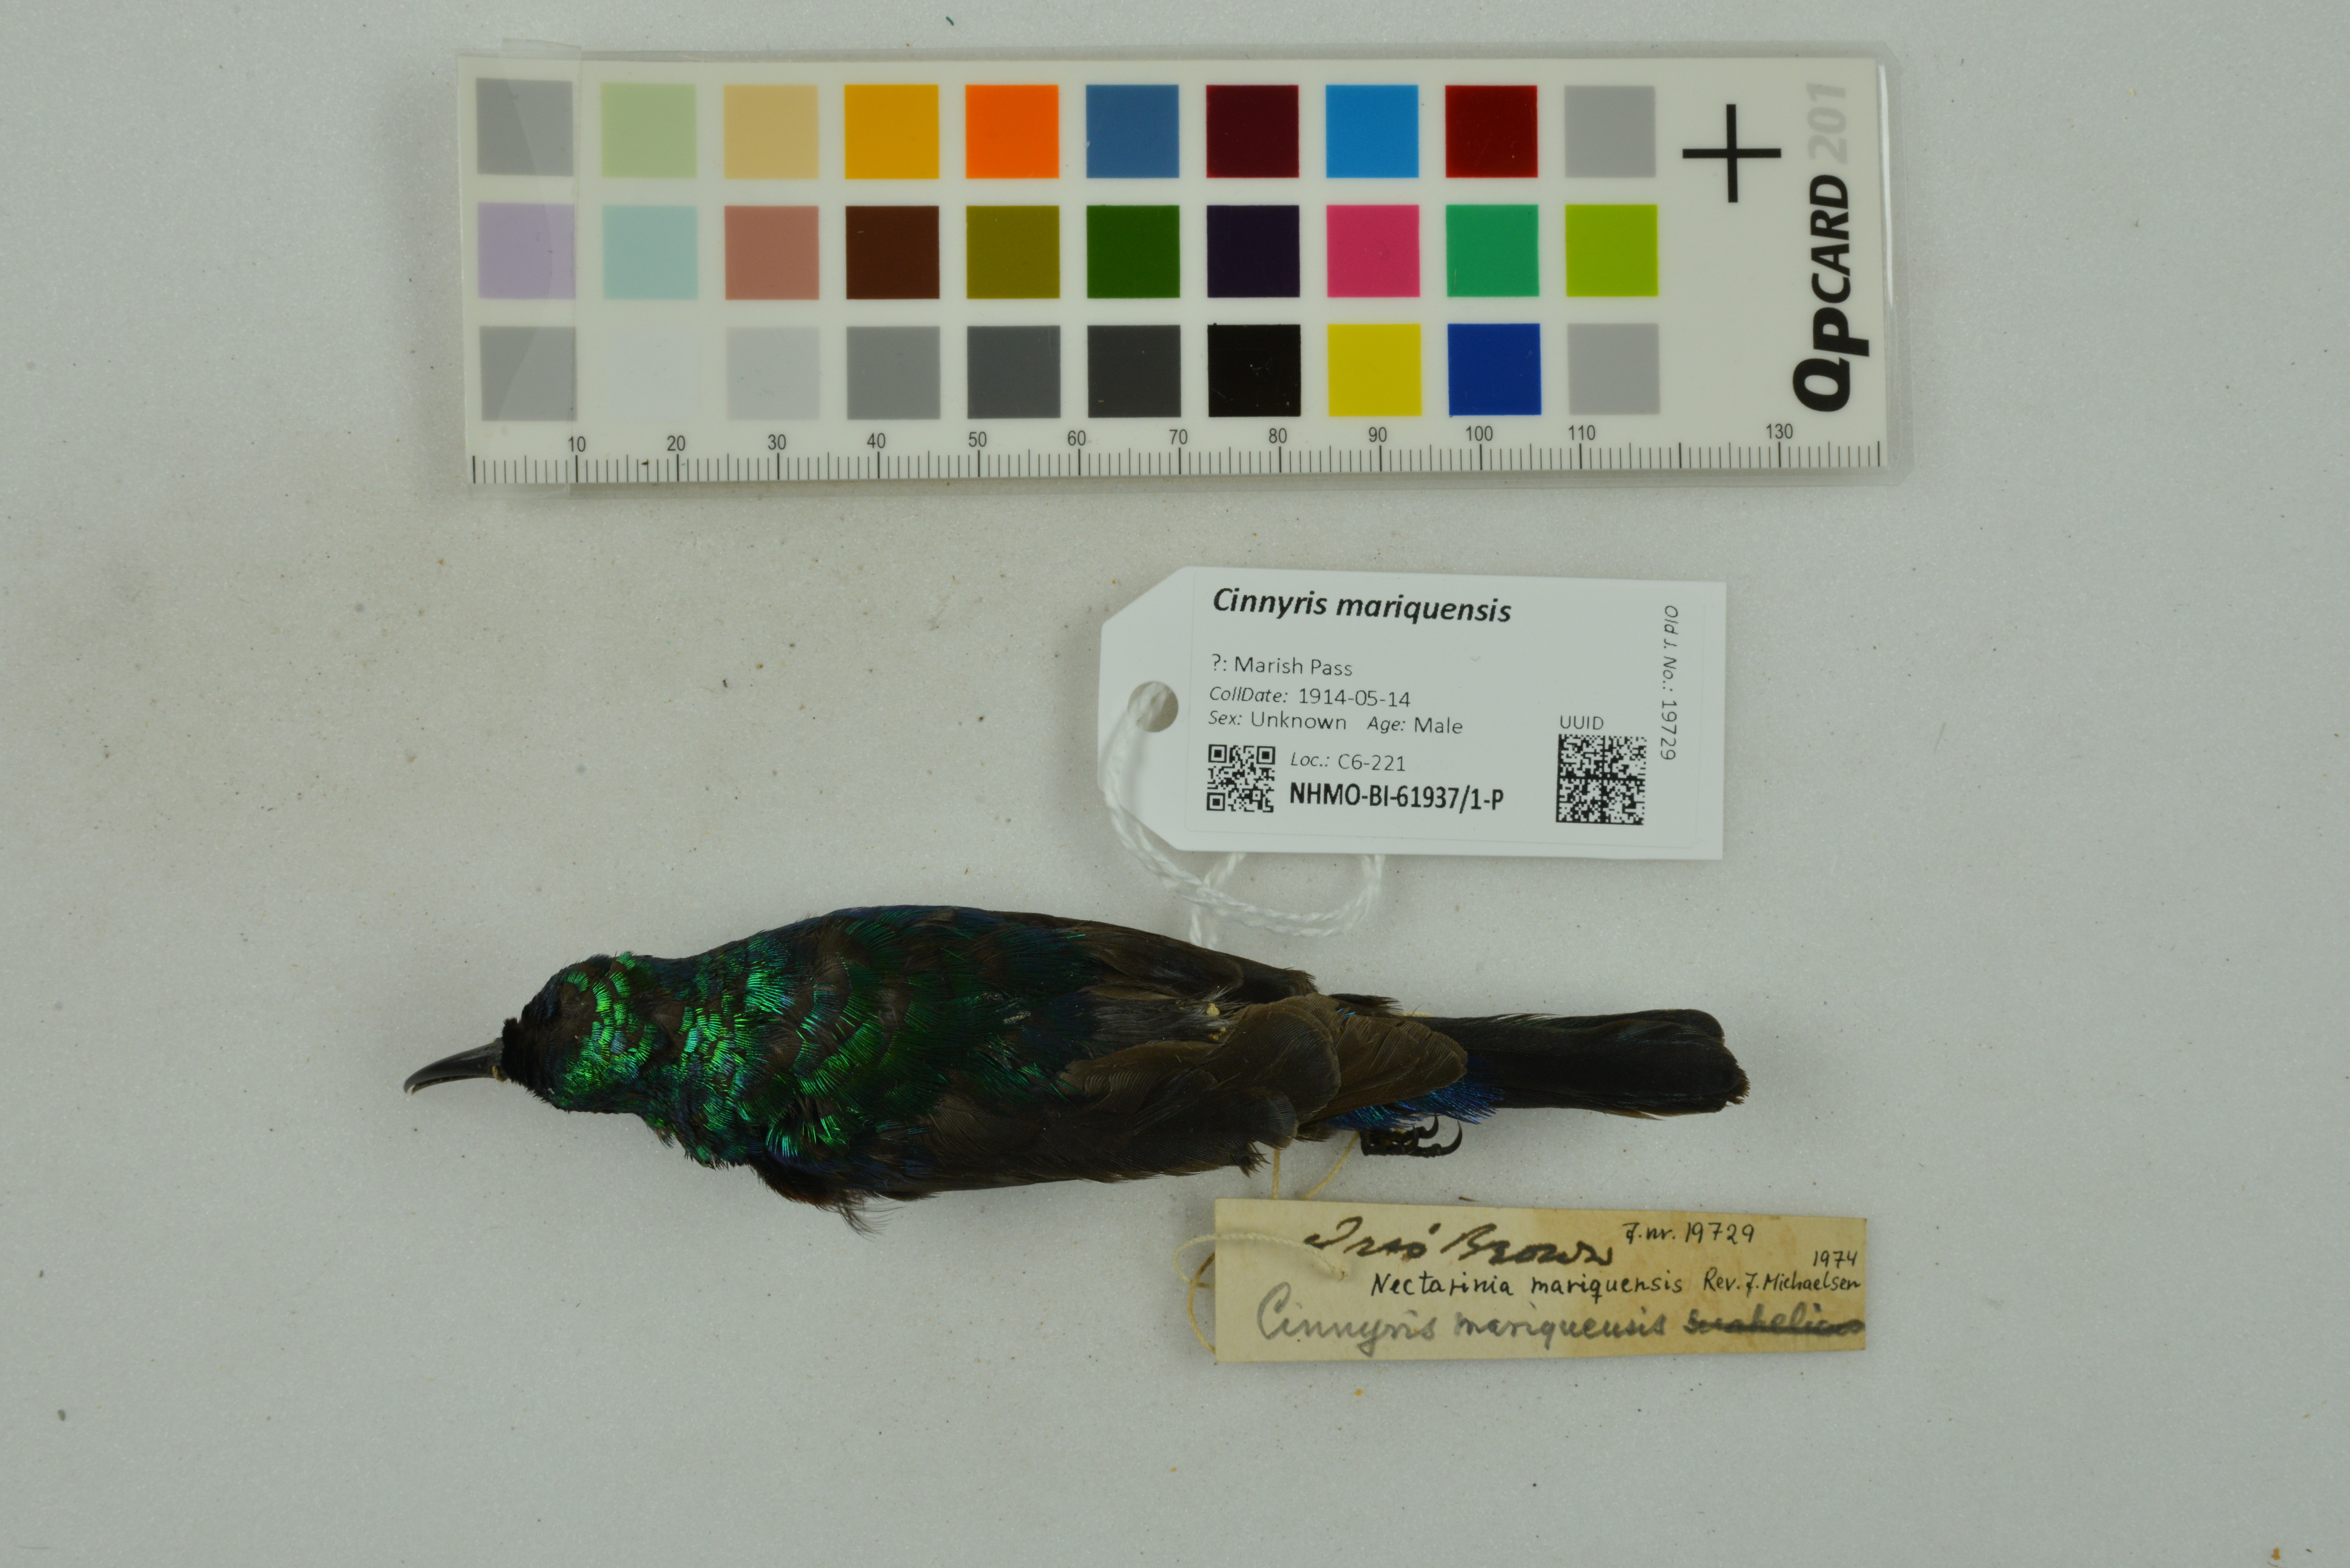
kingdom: Animalia
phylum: Chordata
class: Aves
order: Passeriformes
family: Nectariniidae
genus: Cinnyris
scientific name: Cinnyris mariquensis
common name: Marico sunbird
